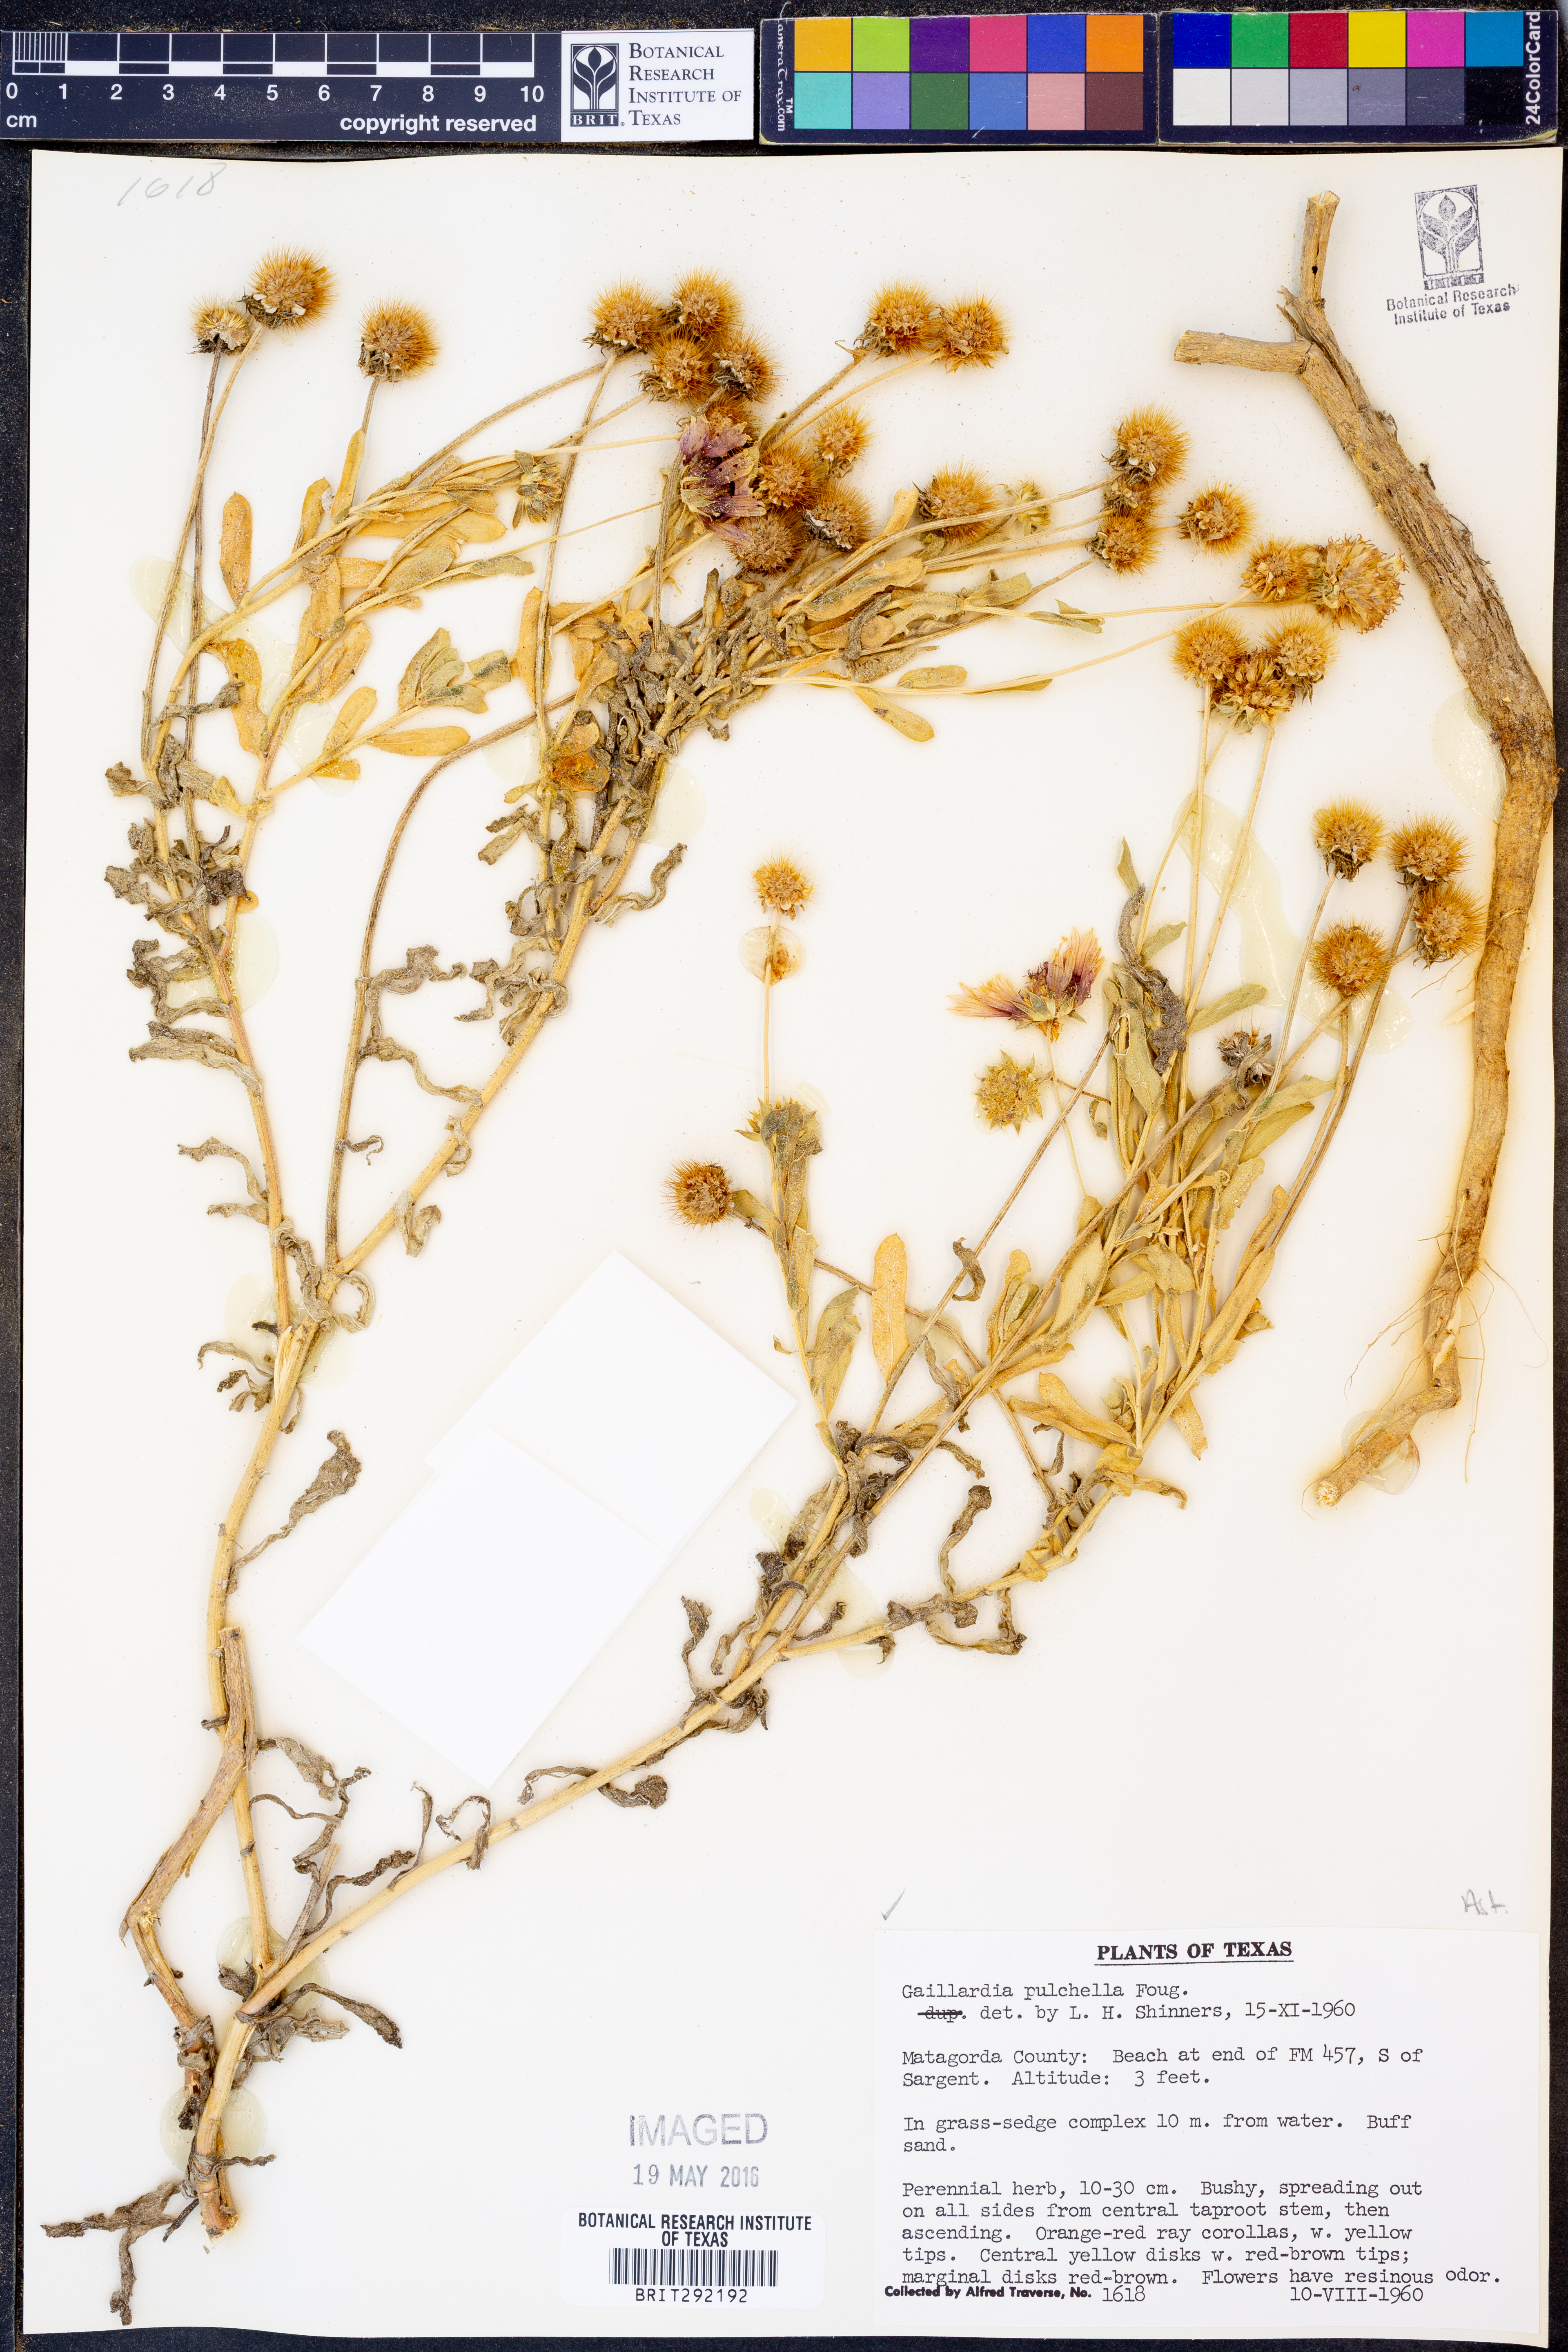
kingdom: Plantae
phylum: Tracheophyta
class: Magnoliopsida
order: Asterales
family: Asteraceae
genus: Gaillardia
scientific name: Gaillardia pulchella
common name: Firewheel
